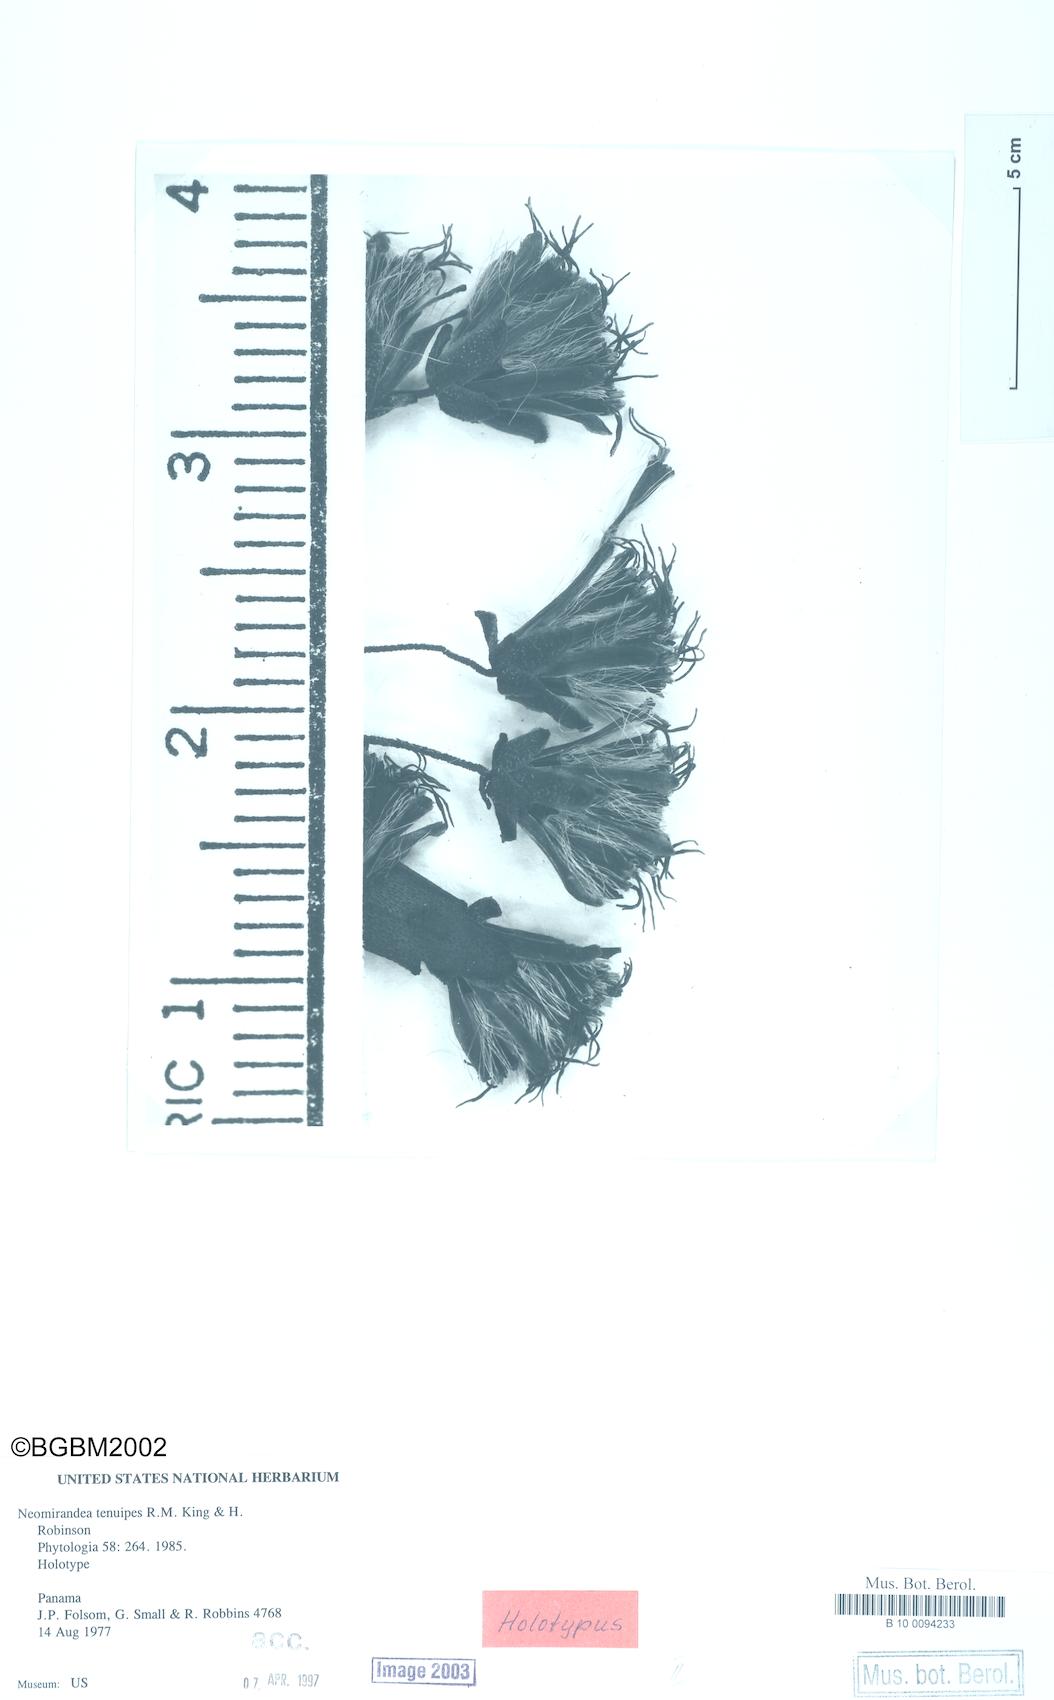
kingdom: Plantae
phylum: Tracheophyta
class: Magnoliopsida
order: Asterales
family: Asteraceae
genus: Neomirandea
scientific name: Neomirandea tenuipes
